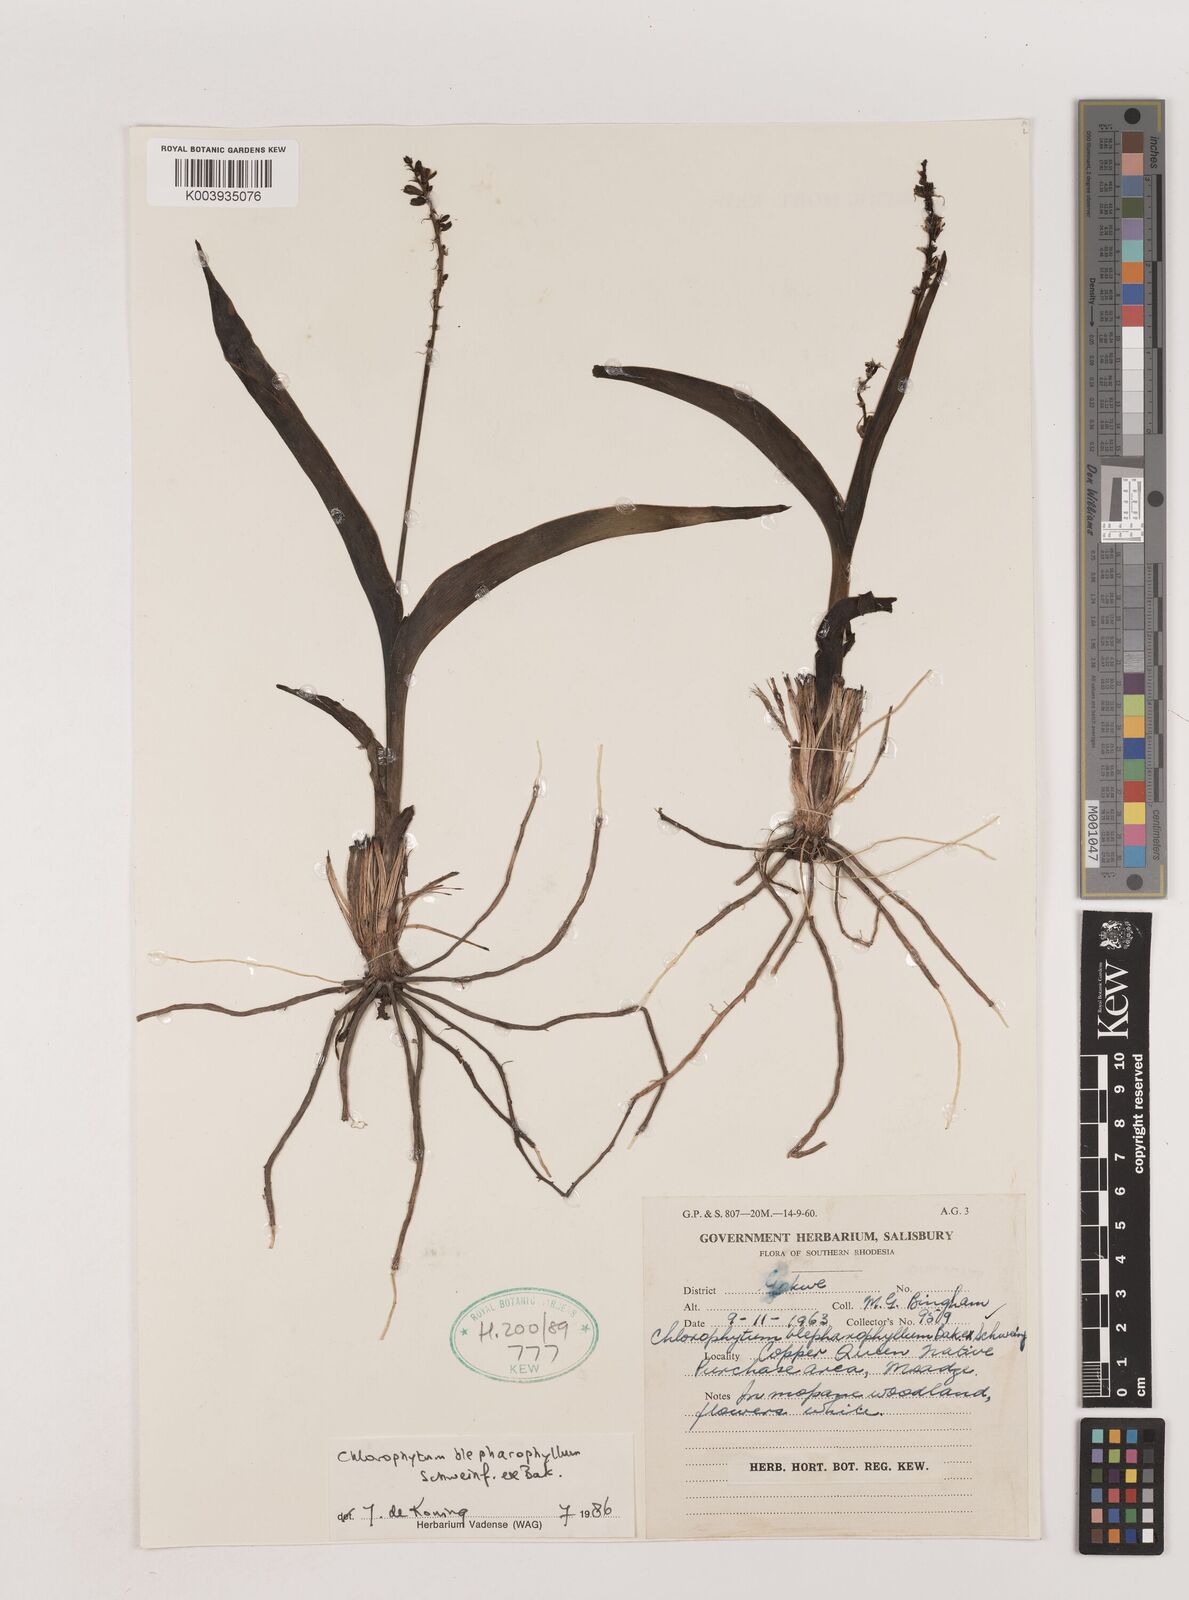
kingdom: Plantae
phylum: Tracheophyta
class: Liliopsida
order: Asparagales
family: Asparagaceae
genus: Chlorophytum
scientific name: Chlorophytum blepharophyllum
